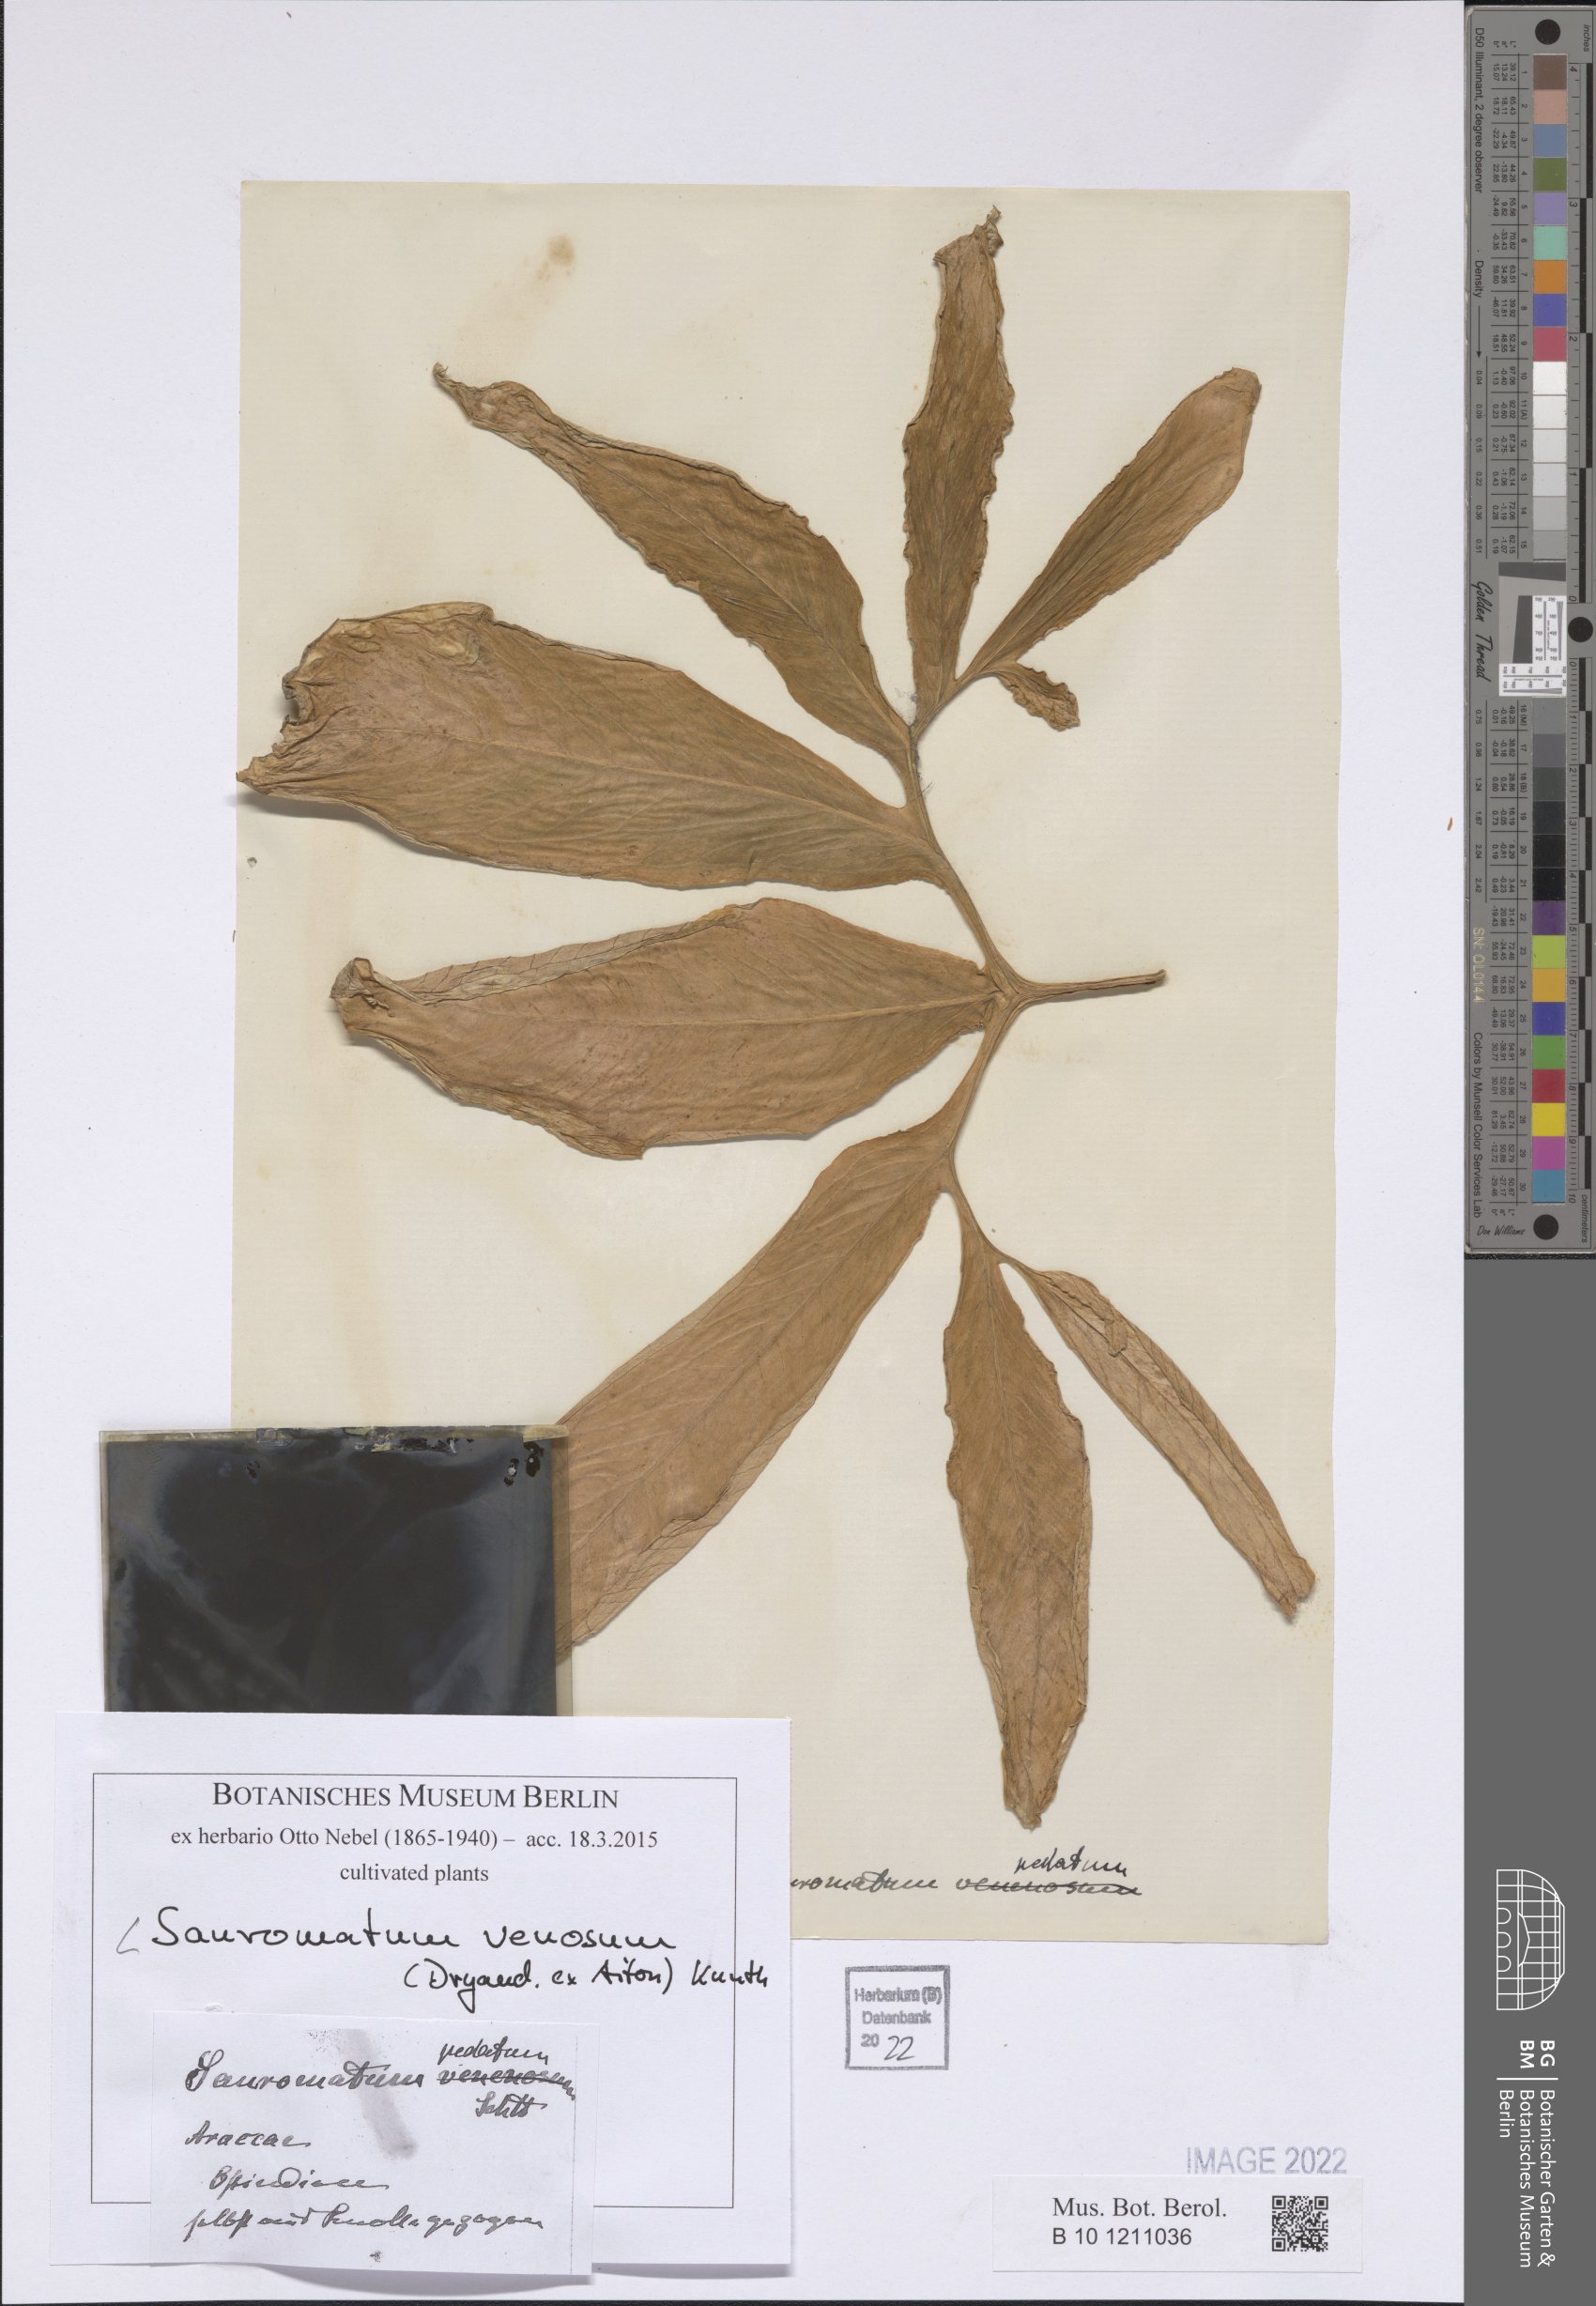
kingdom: Plantae
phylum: Tracheophyta
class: Liliopsida
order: Alismatales
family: Araceae
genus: Sauromatum
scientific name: Sauromatum venosum
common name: Voodoo lily
